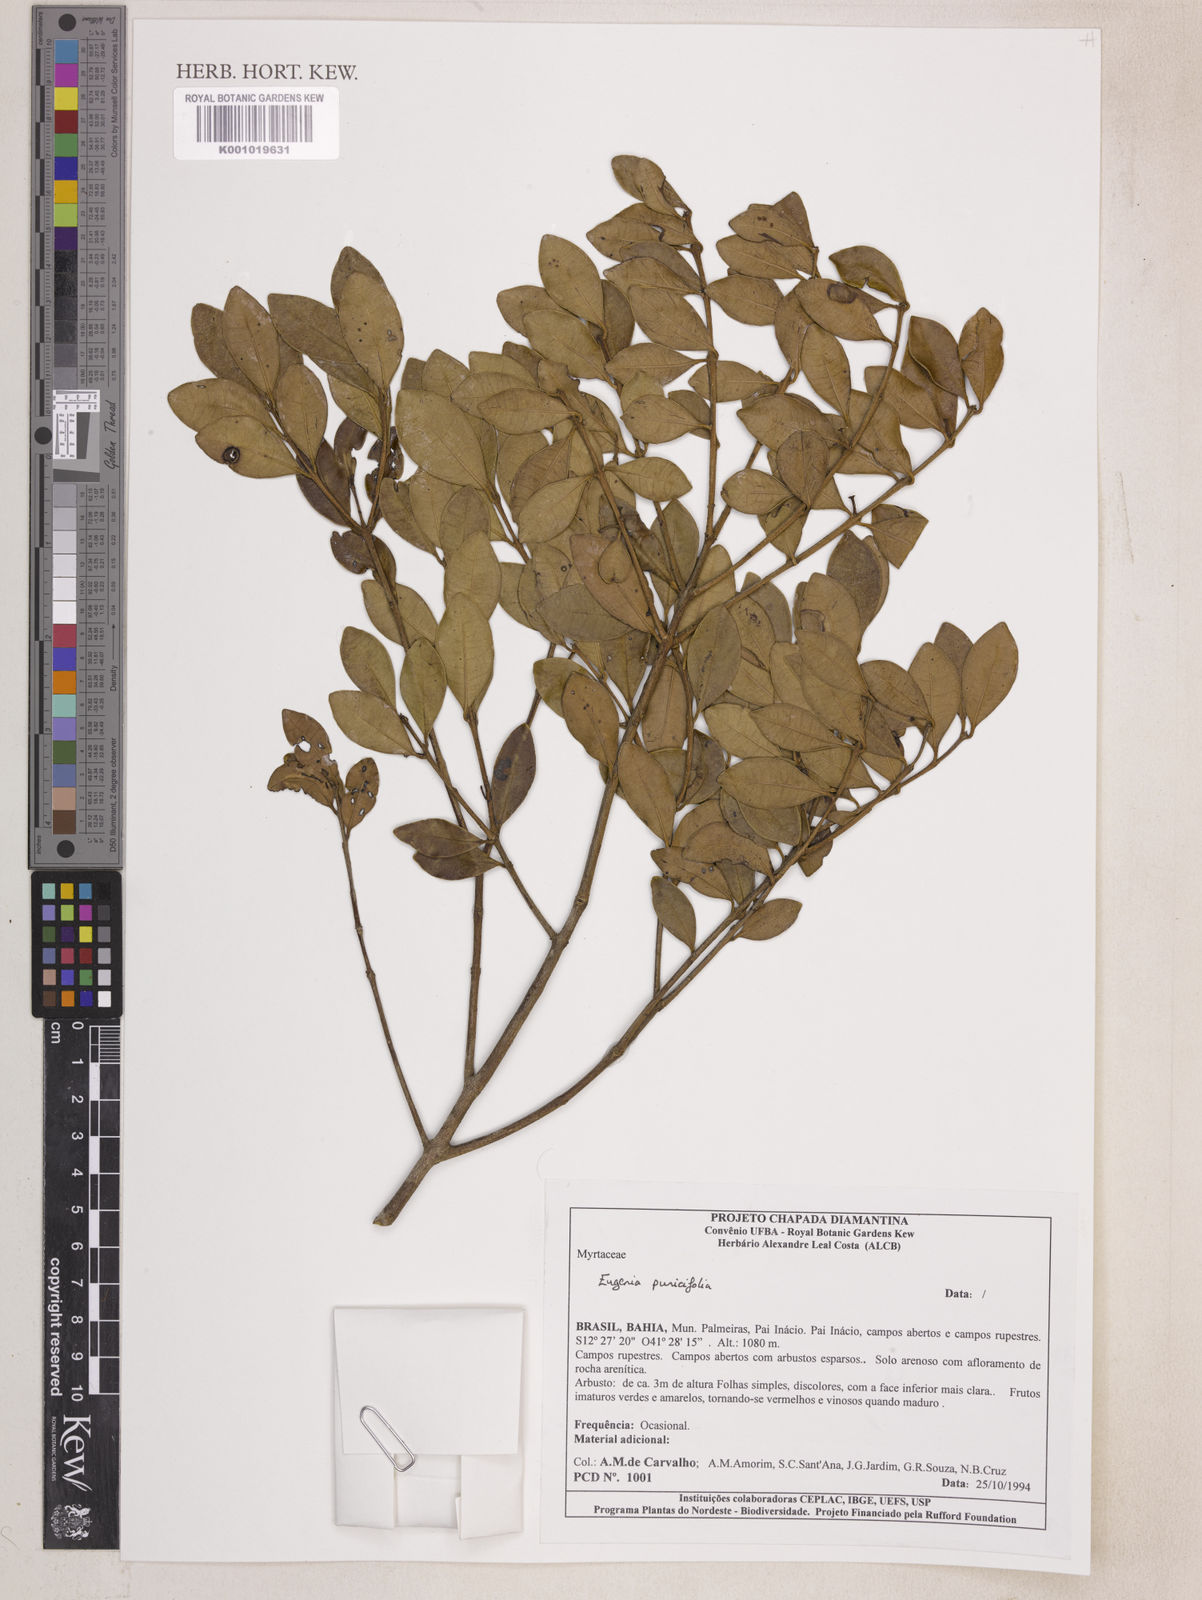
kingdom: Plantae
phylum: Tracheophyta
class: Magnoliopsida
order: Myrtales
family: Myrtaceae
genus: Eugenia
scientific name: Eugenia punicifolia
